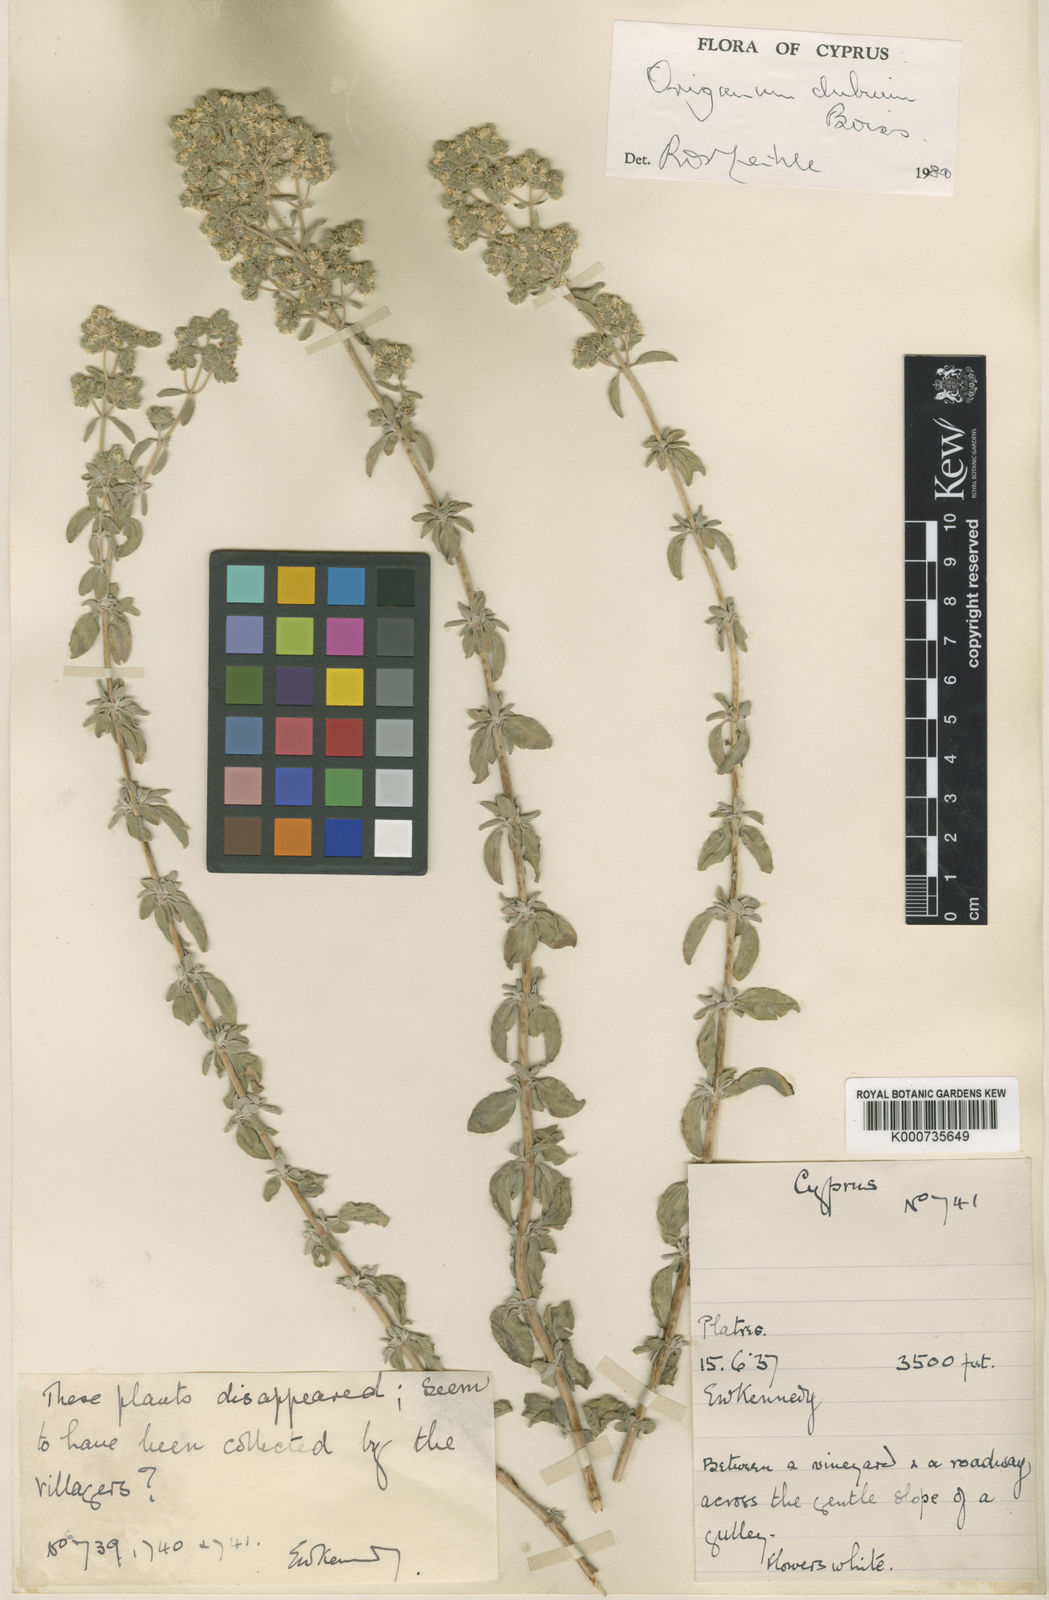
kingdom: Plantae
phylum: Tracheophyta
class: Magnoliopsida
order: Lamiales
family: Lamiaceae
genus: Origanum
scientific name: Origanum majorana
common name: Sweet marjoram
